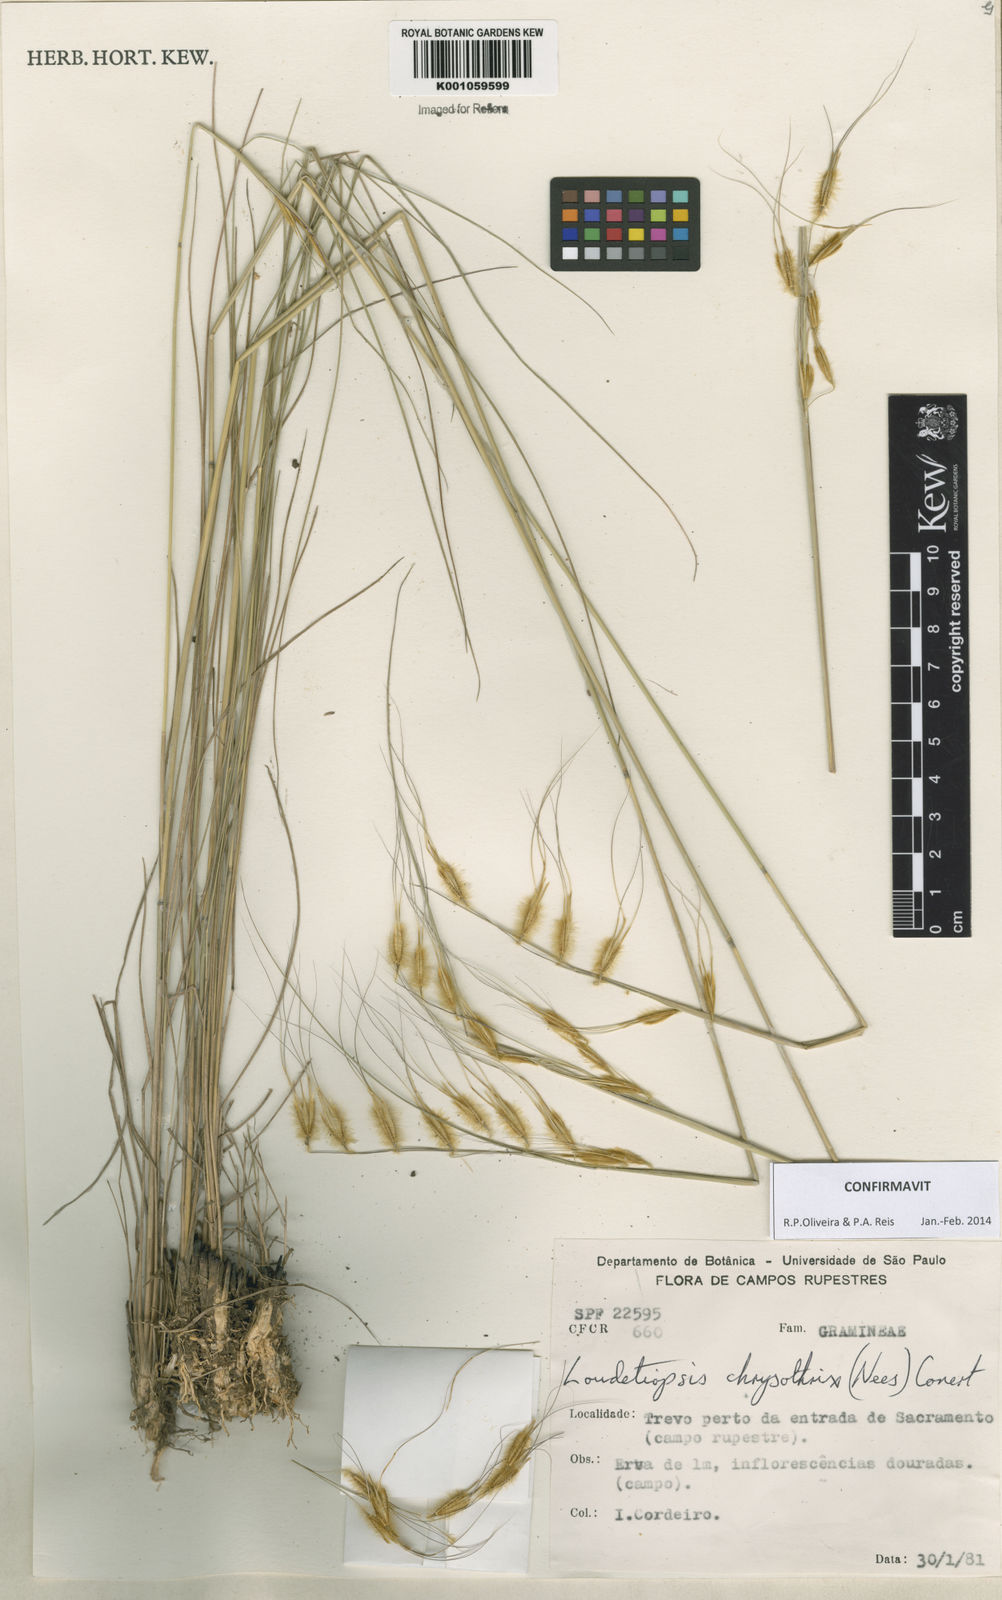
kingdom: Plantae
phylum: Tracheophyta
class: Liliopsida
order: Poales
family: Poaceae
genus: Loudetiopsis
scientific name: Loudetiopsis chrysothrix
